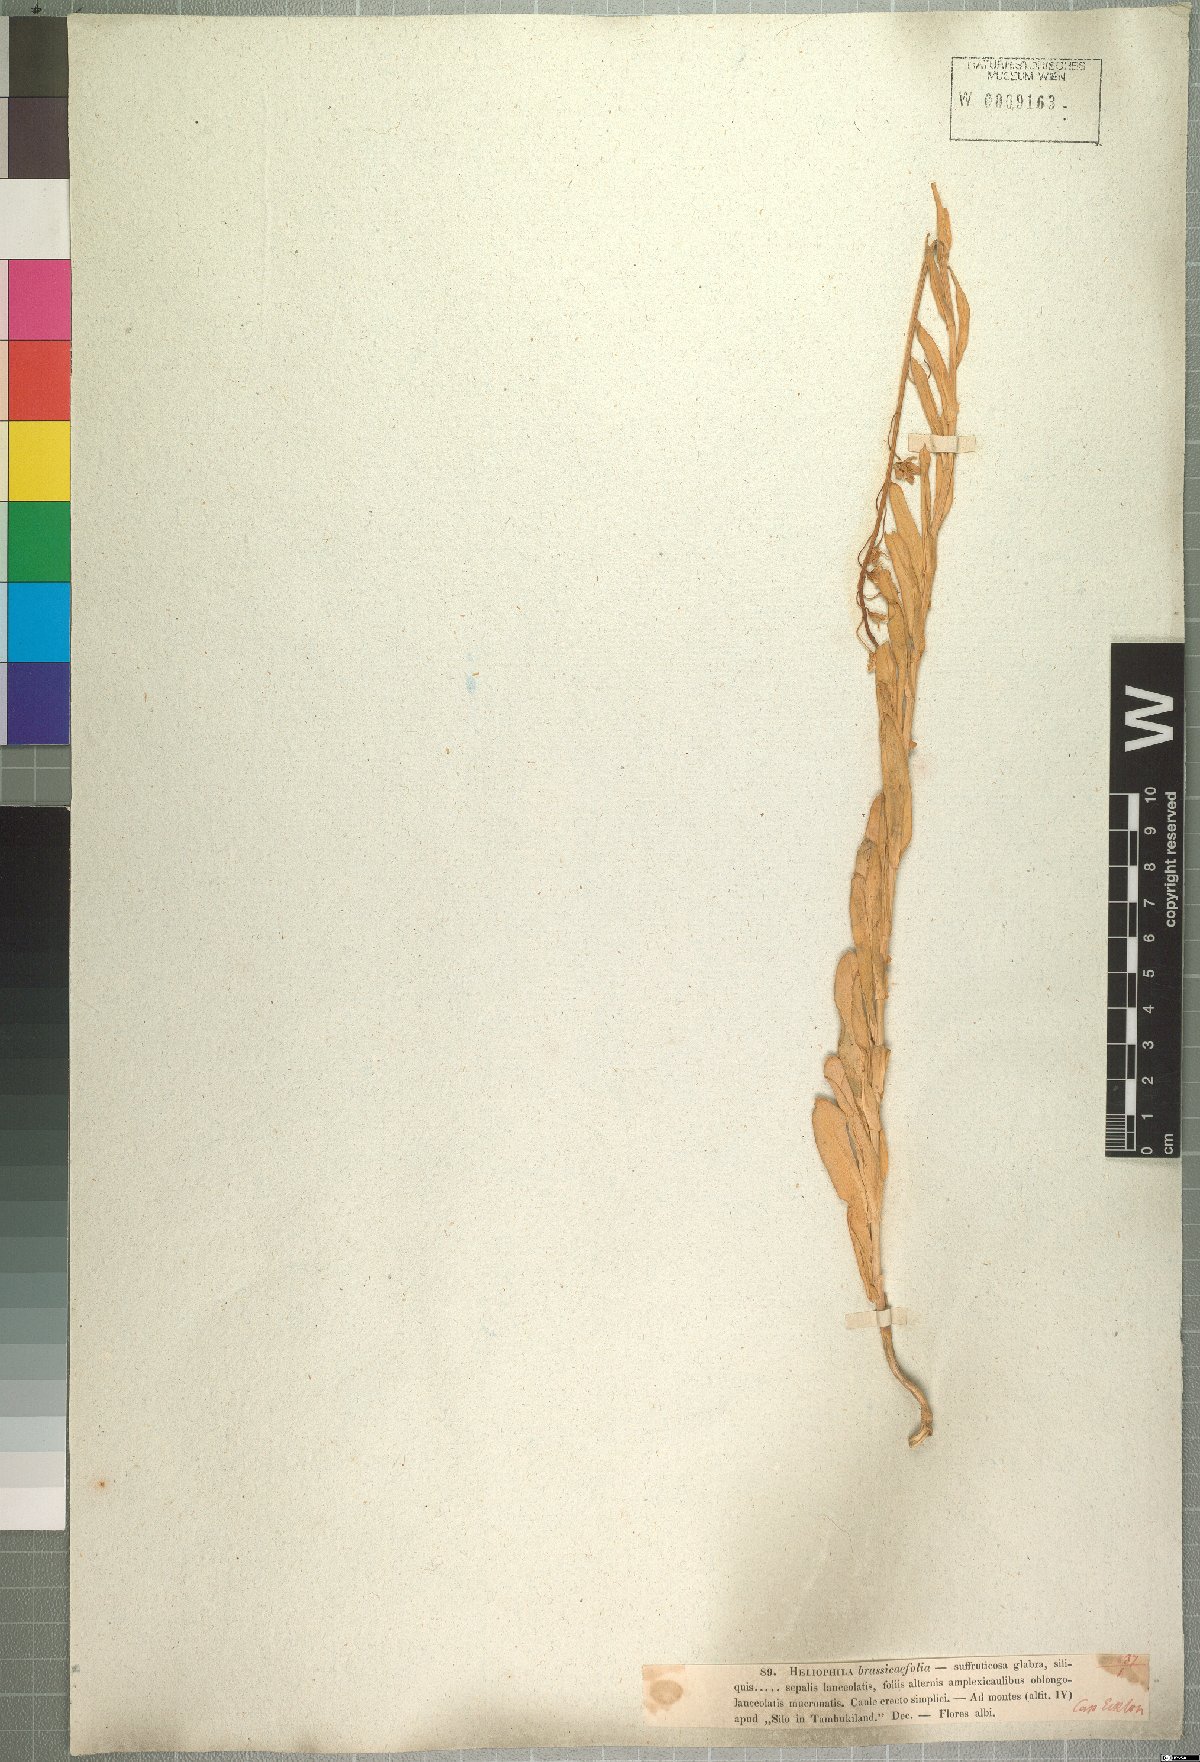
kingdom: Plantae
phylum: Tracheophyta
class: Magnoliopsida
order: Brassicales
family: Brassicaceae
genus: Heliophila
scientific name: Heliophila brassicifolia
